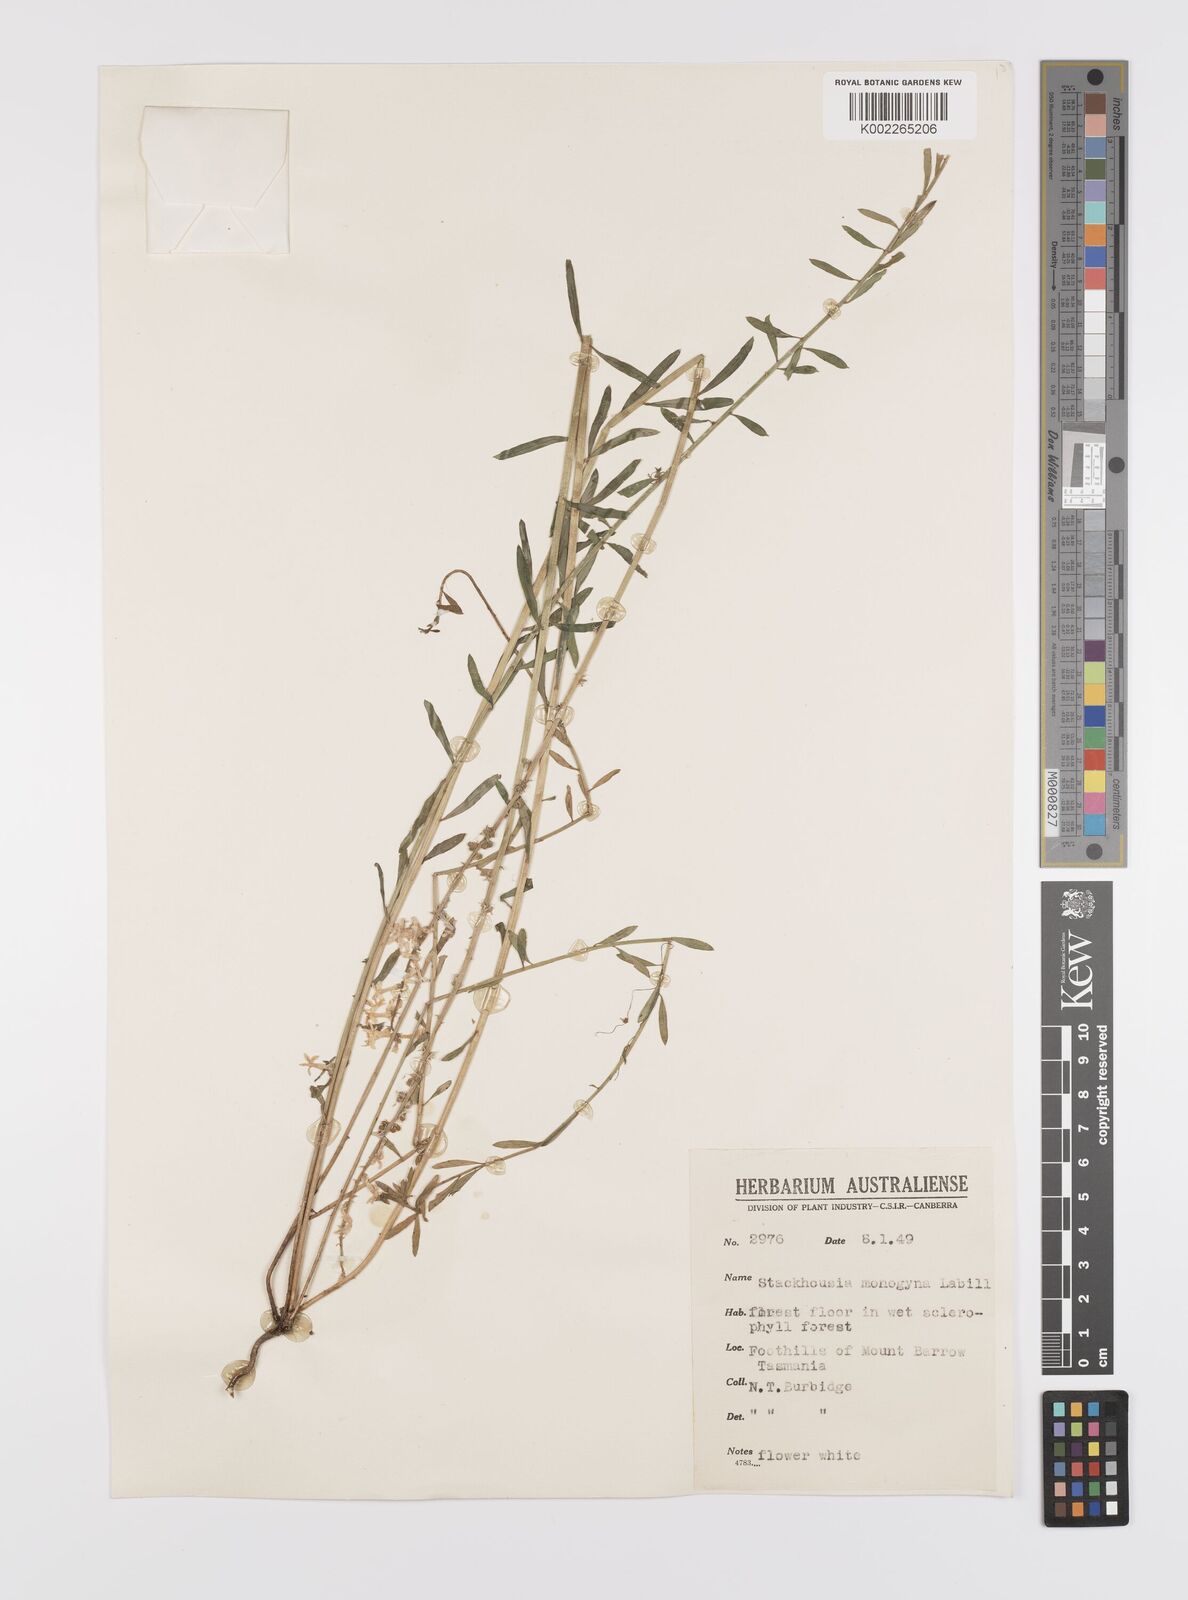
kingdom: Plantae
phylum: Tracheophyta
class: Magnoliopsida
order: Celastrales
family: Celastraceae
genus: Stackhousia
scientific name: Stackhousia monogyna
